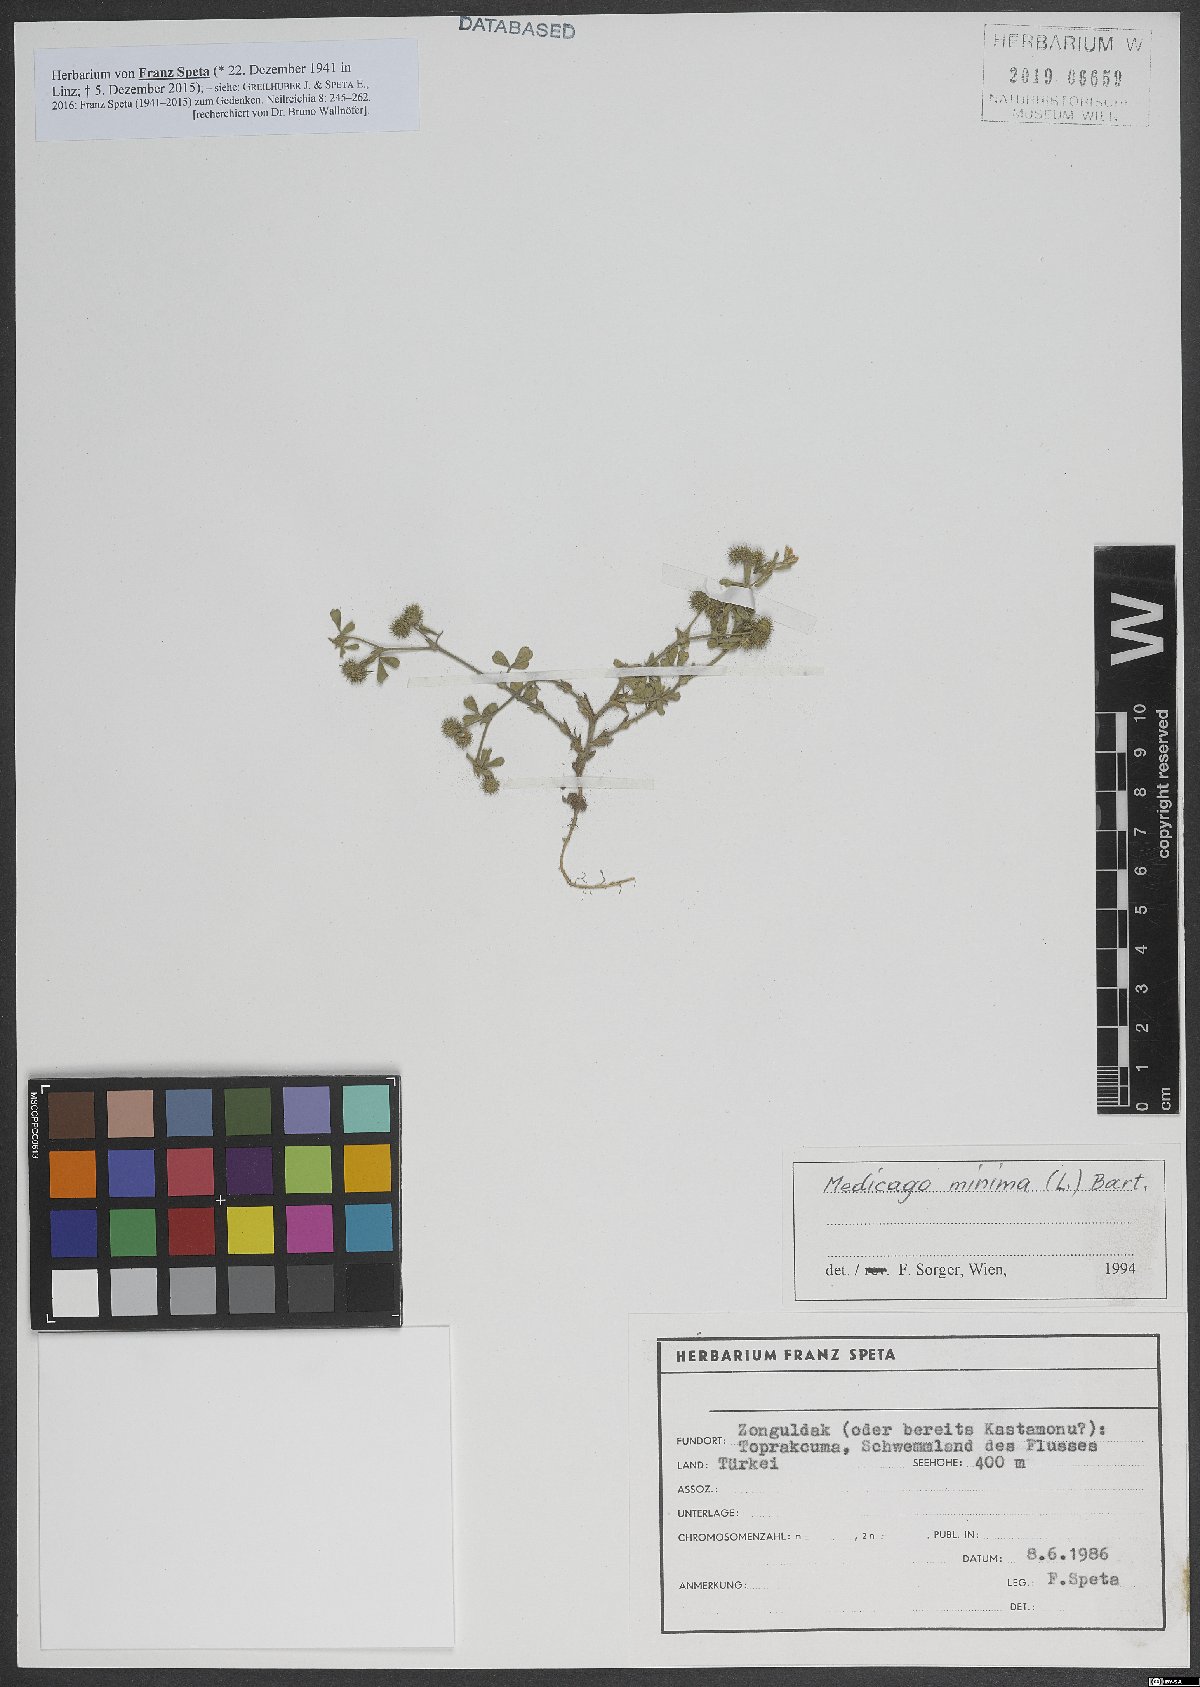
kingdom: Plantae
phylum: Tracheophyta
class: Magnoliopsida
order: Fabales
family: Fabaceae
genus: Medicago
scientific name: Medicago minima
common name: Little bur-clover
